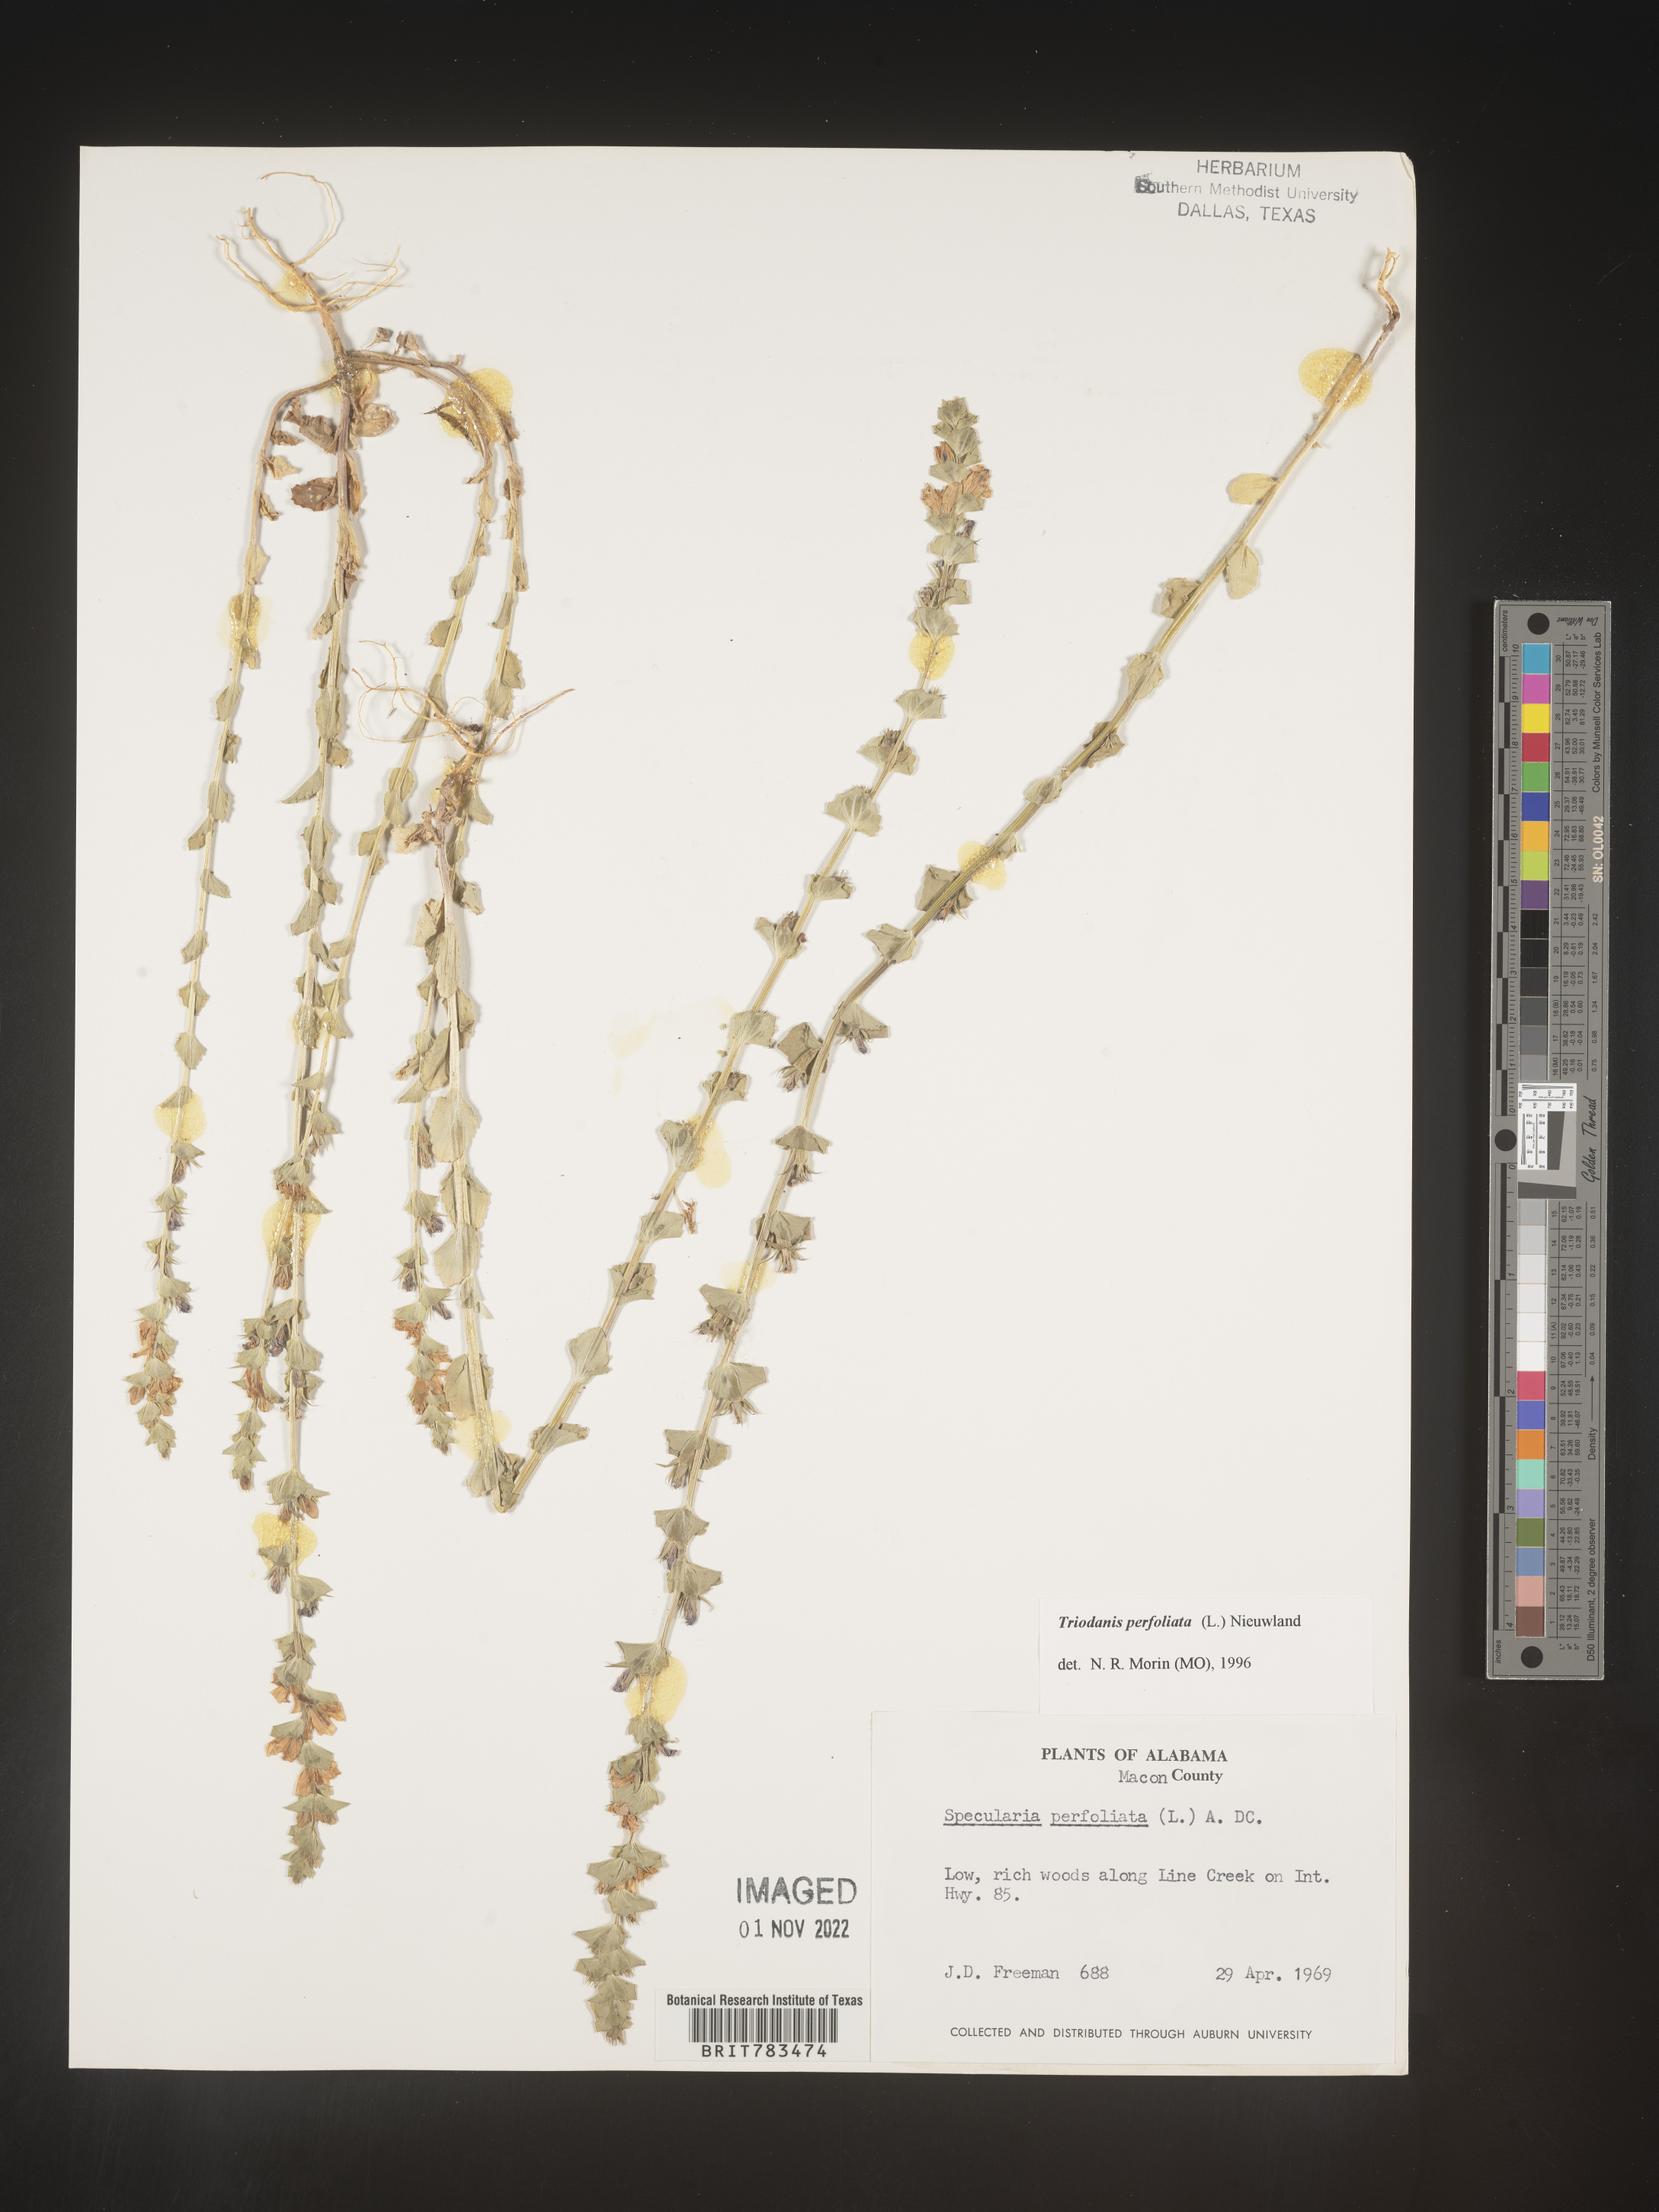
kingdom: Plantae
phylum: Tracheophyta
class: Magnoliopsida
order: Asterales
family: Campanulaceae
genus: Triodanis
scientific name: Triodanis perfoliata
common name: Clasping venus' looking-glass
